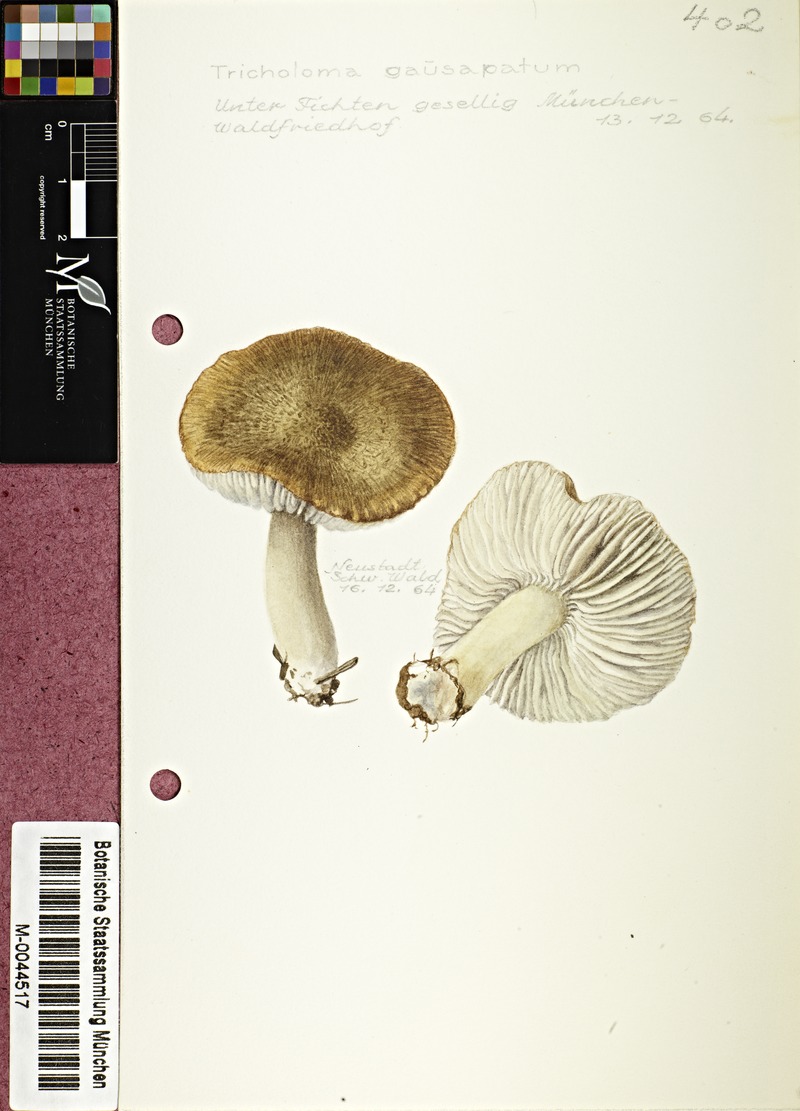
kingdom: Fungi
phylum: Basidiomycota
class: Agaricomycetes
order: Agaricales
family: Tricholomataceae
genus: Tricholoma
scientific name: Tricholoma gausapatum
